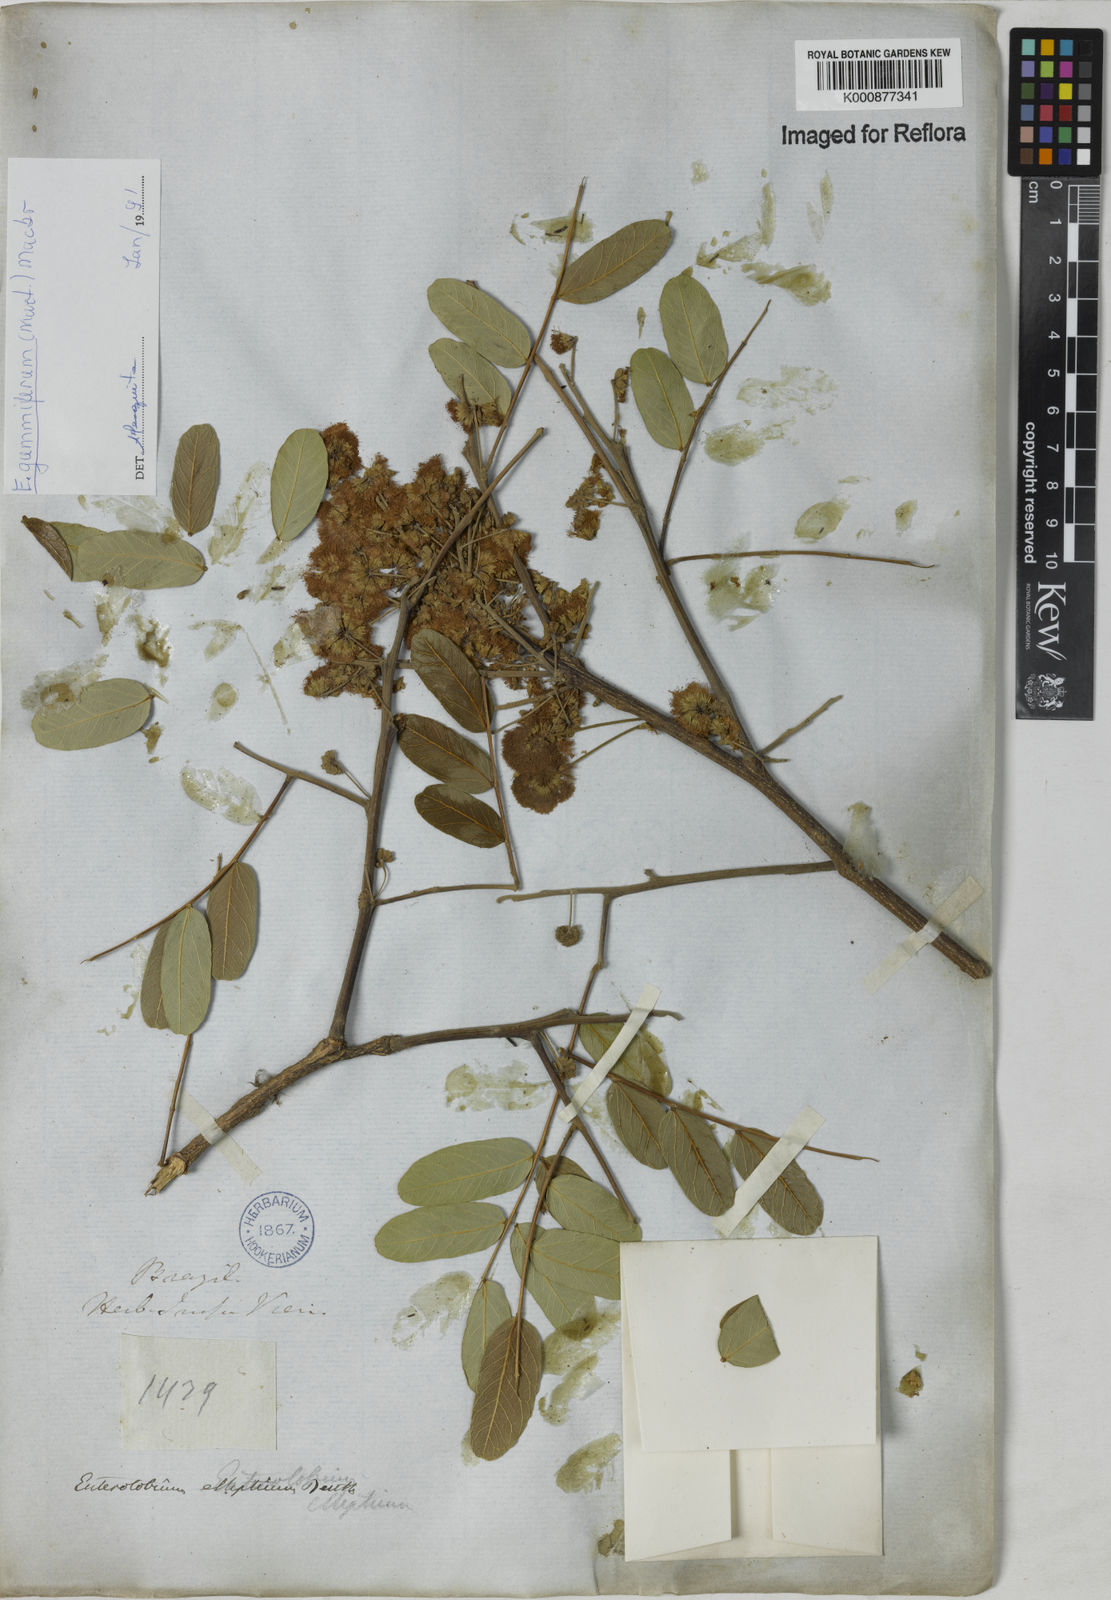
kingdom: Plantae
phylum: Tracheophyta
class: Magnoliopsida
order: Fabales
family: Fabaceae
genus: Enterolobium
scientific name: Enterolobium gummiferum
